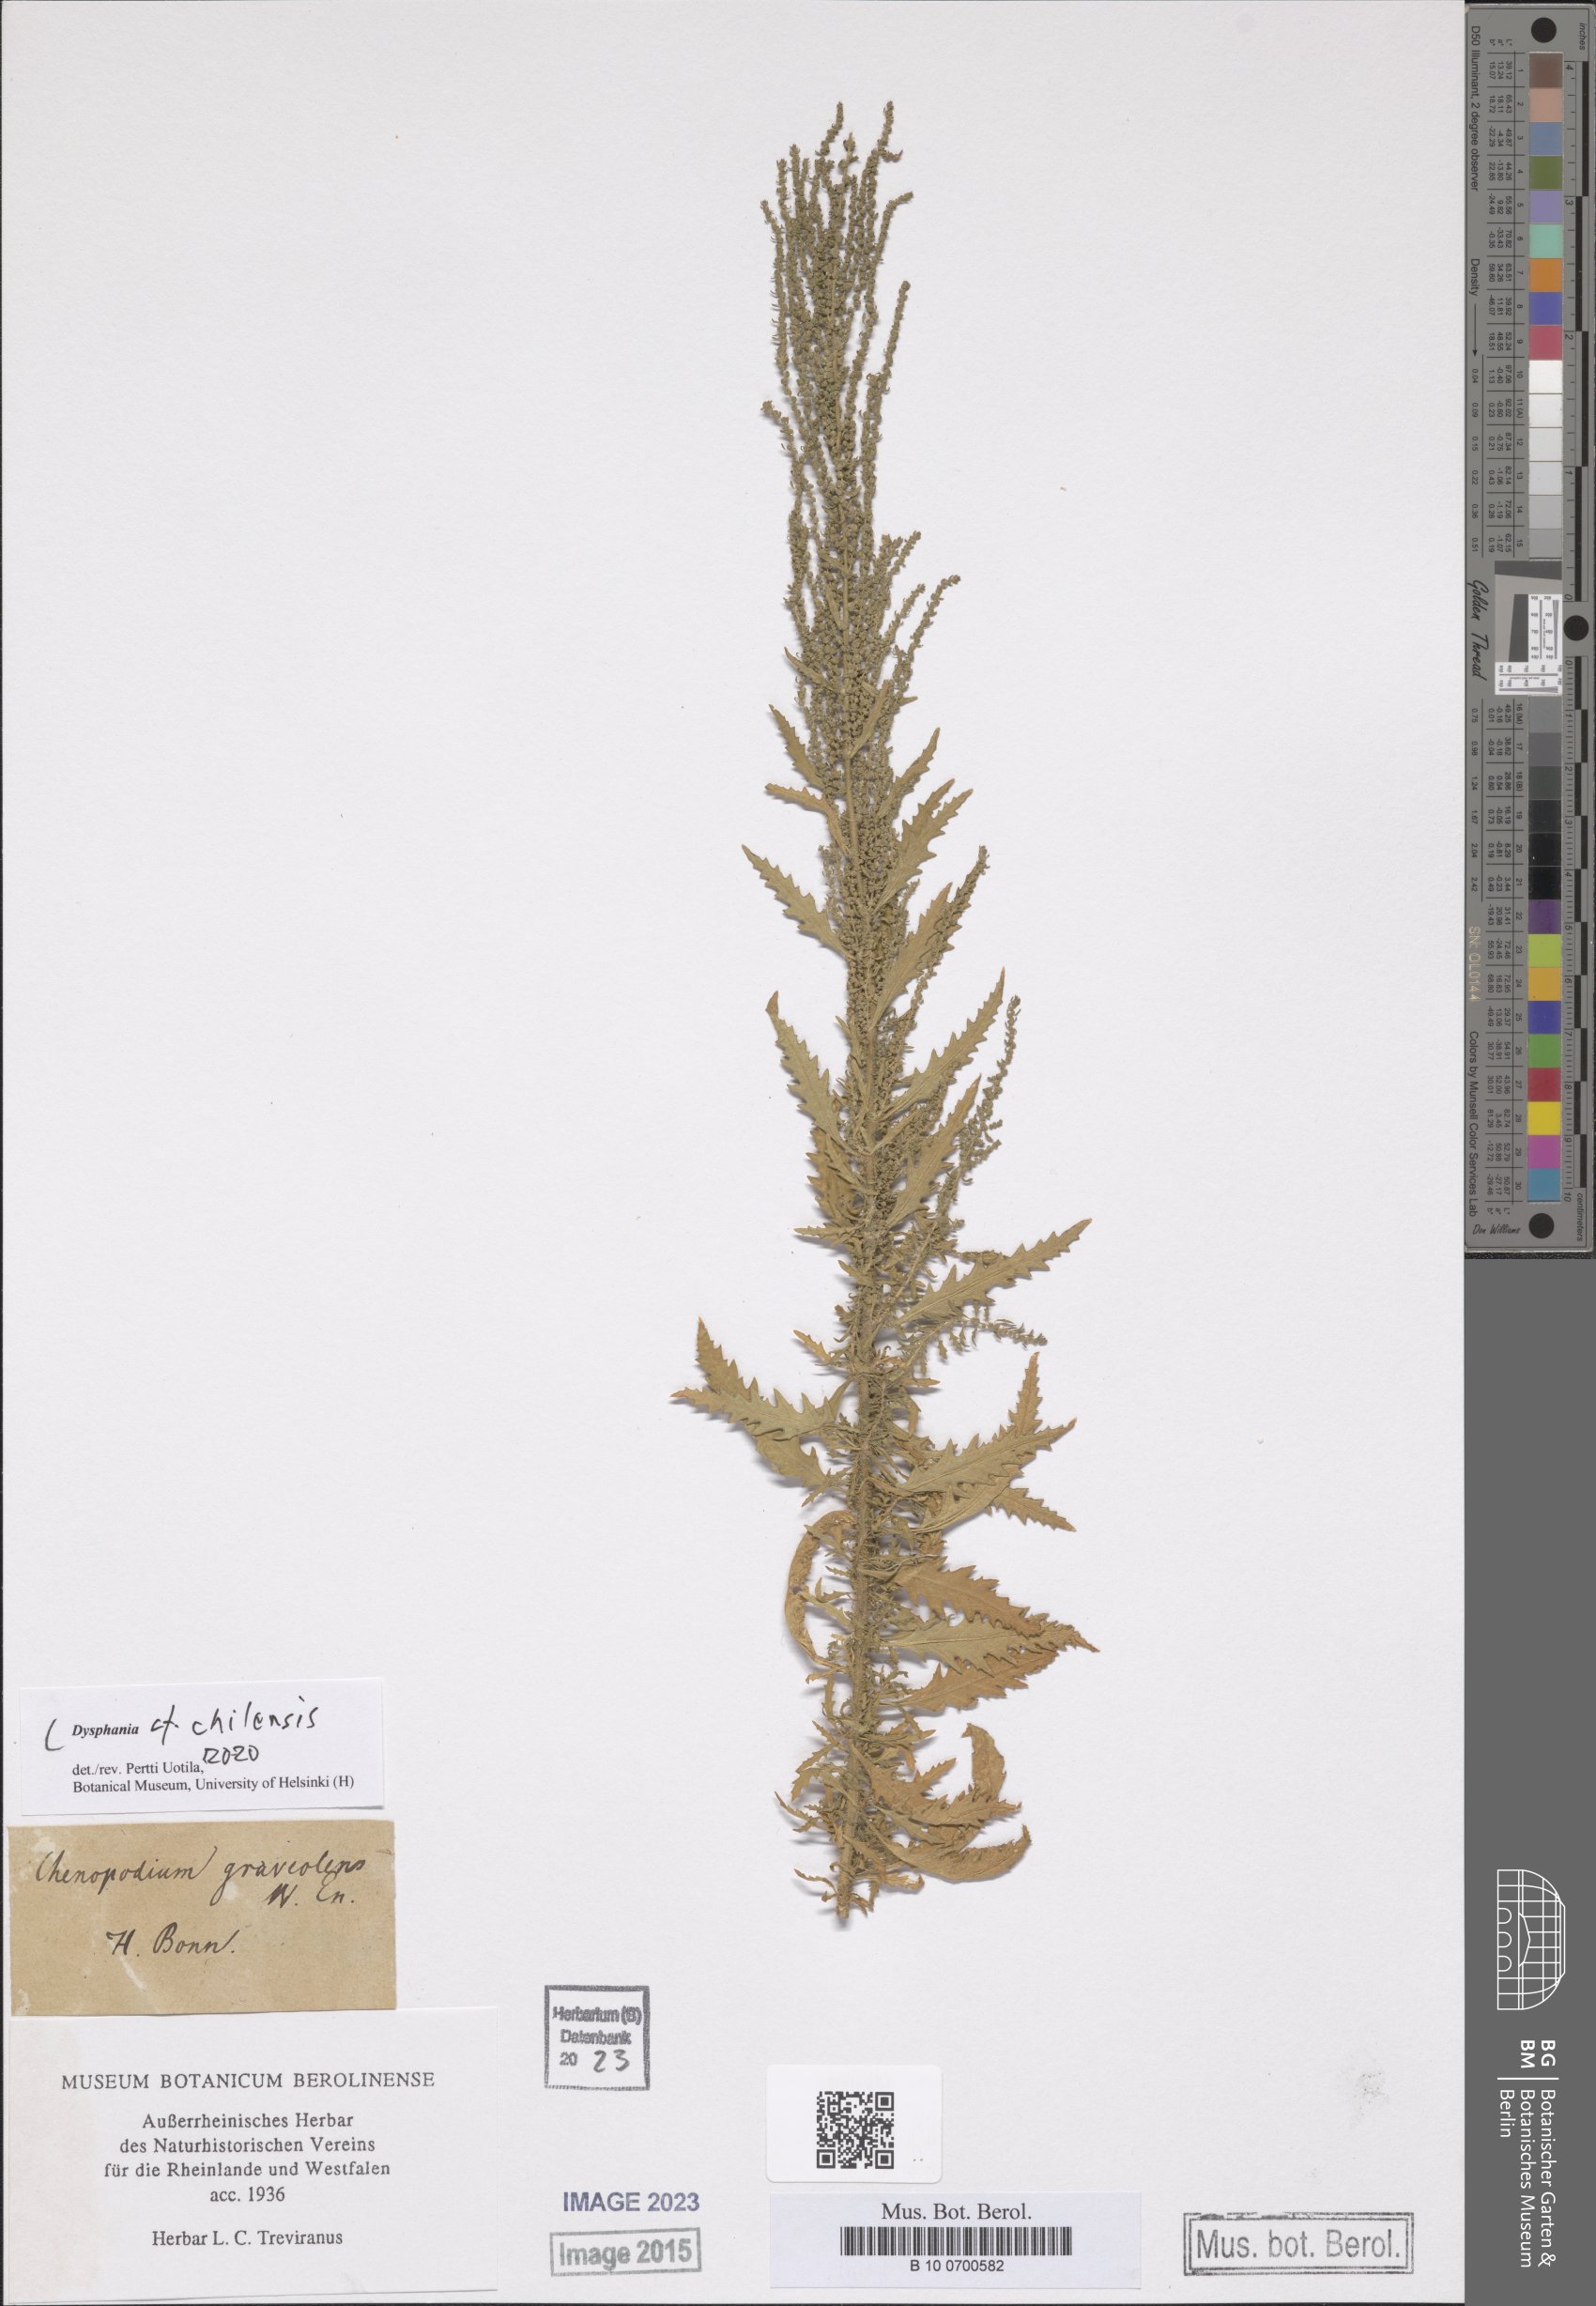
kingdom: Plantae
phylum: Tracheophyta
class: Magnoliopsida
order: Caryophyllales
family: Amaranthaceae
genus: Dysphania
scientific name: Dysphania chilensis
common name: Chilean wormseed
